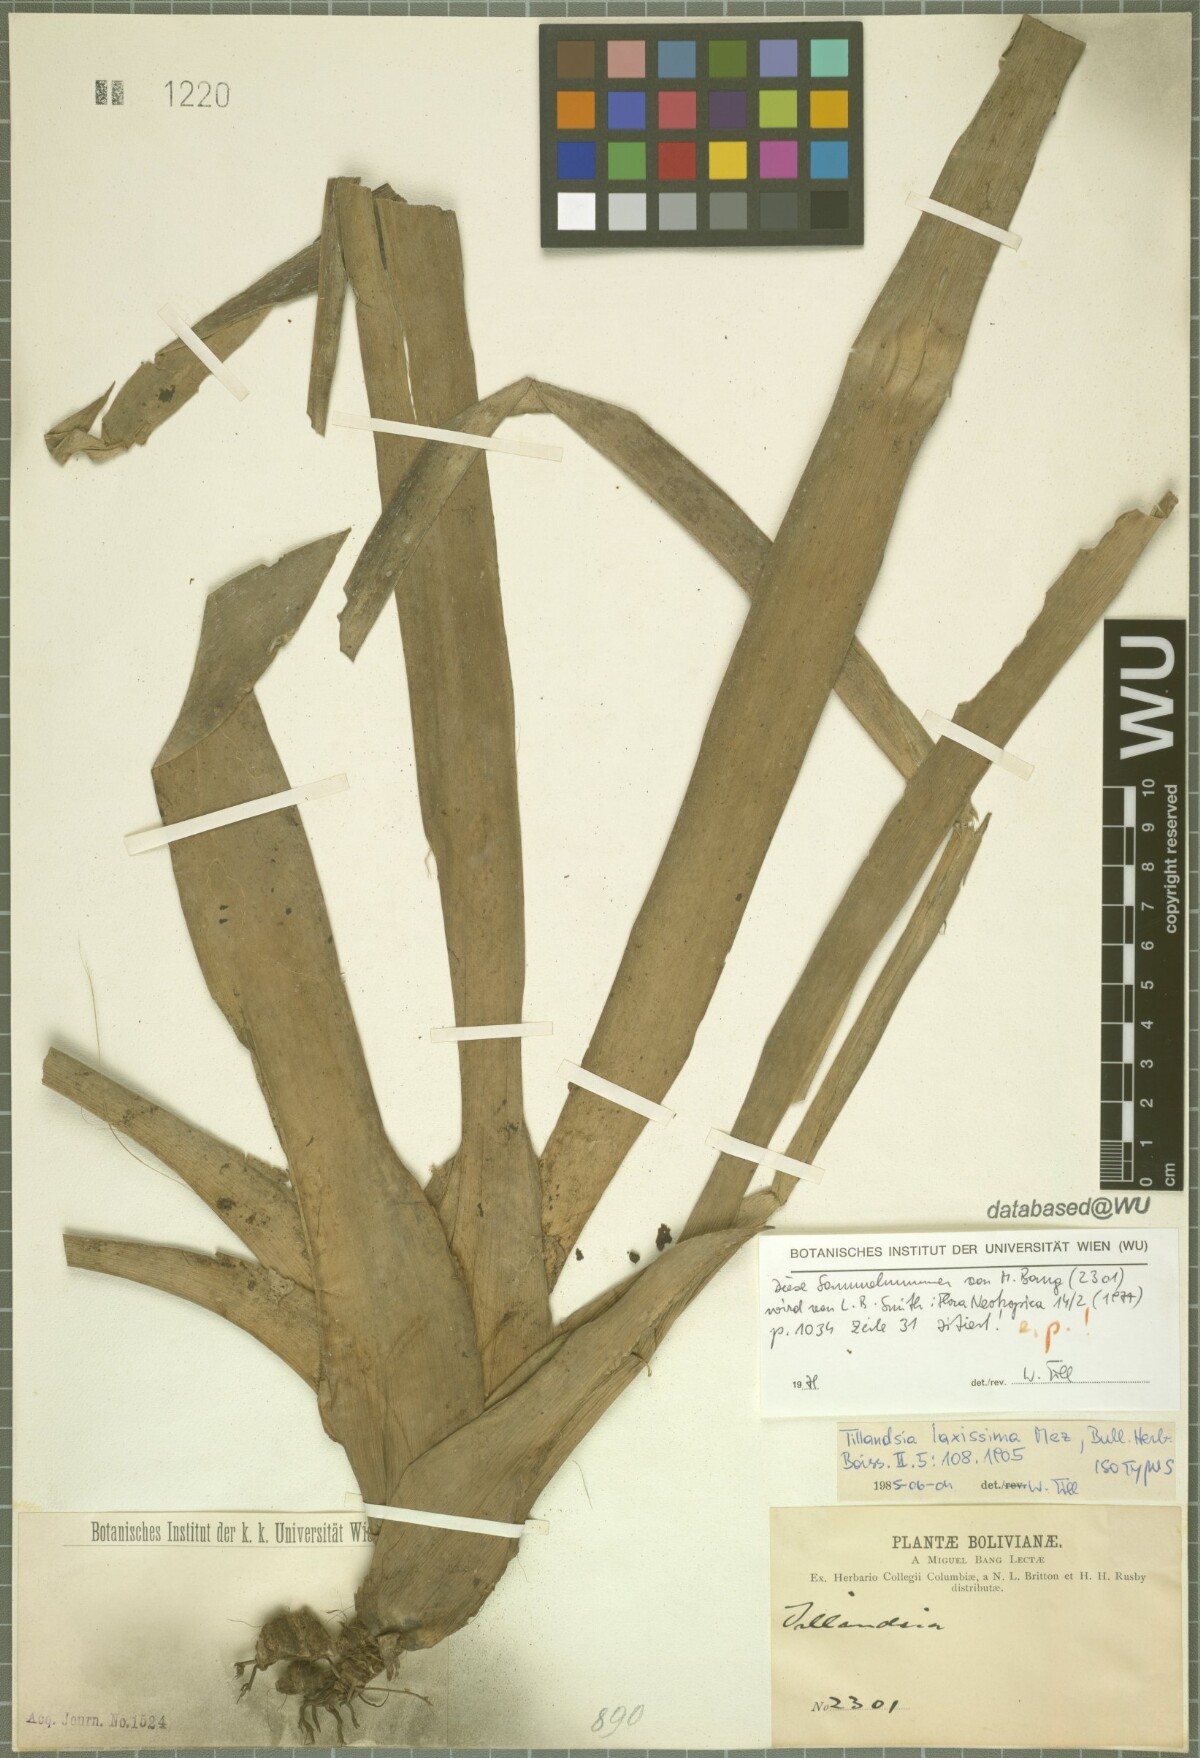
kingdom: Plantae
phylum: Tracheophyta
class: Liliopsida
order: Poales
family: Bromeliaceae
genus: Barfussia
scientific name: Barfussia laxissima
